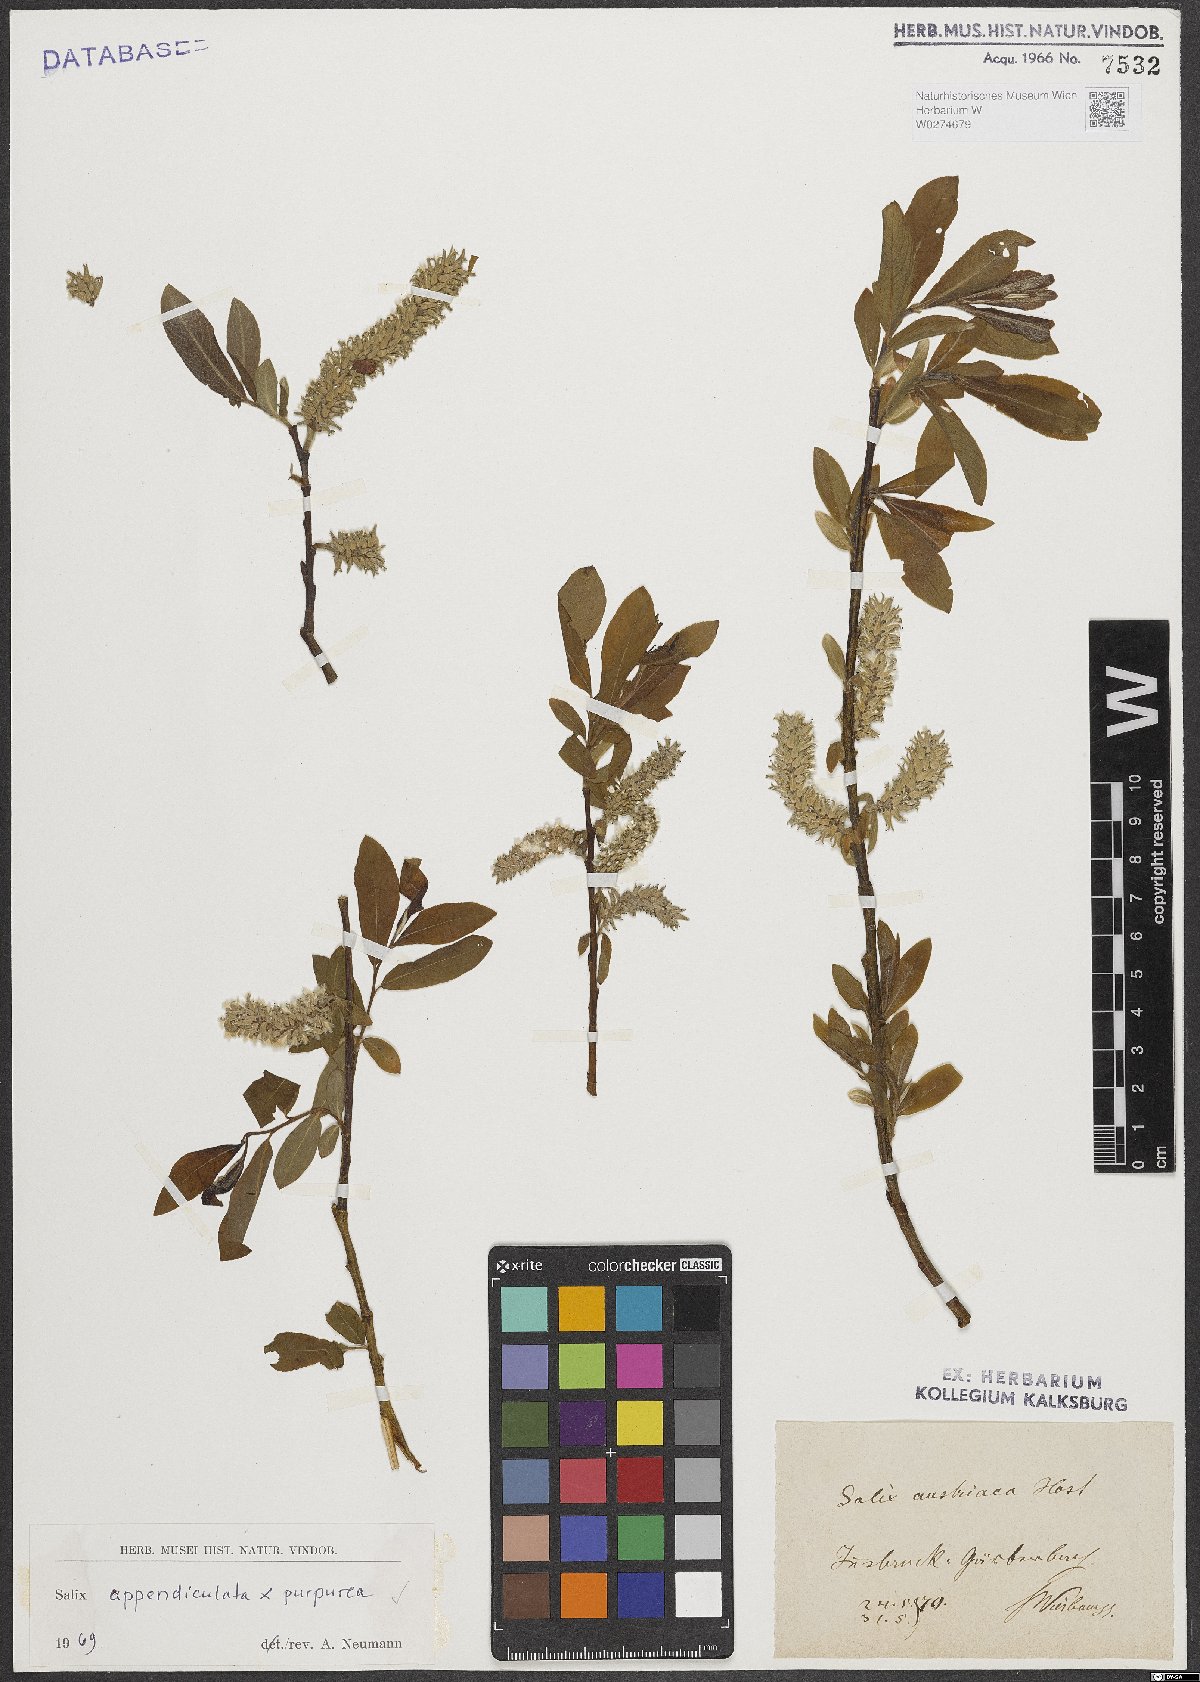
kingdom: Plantae
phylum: Tracheophyta
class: Magnoliopsida
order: Malpighiales
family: Salicaceae
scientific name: Salicaceae
